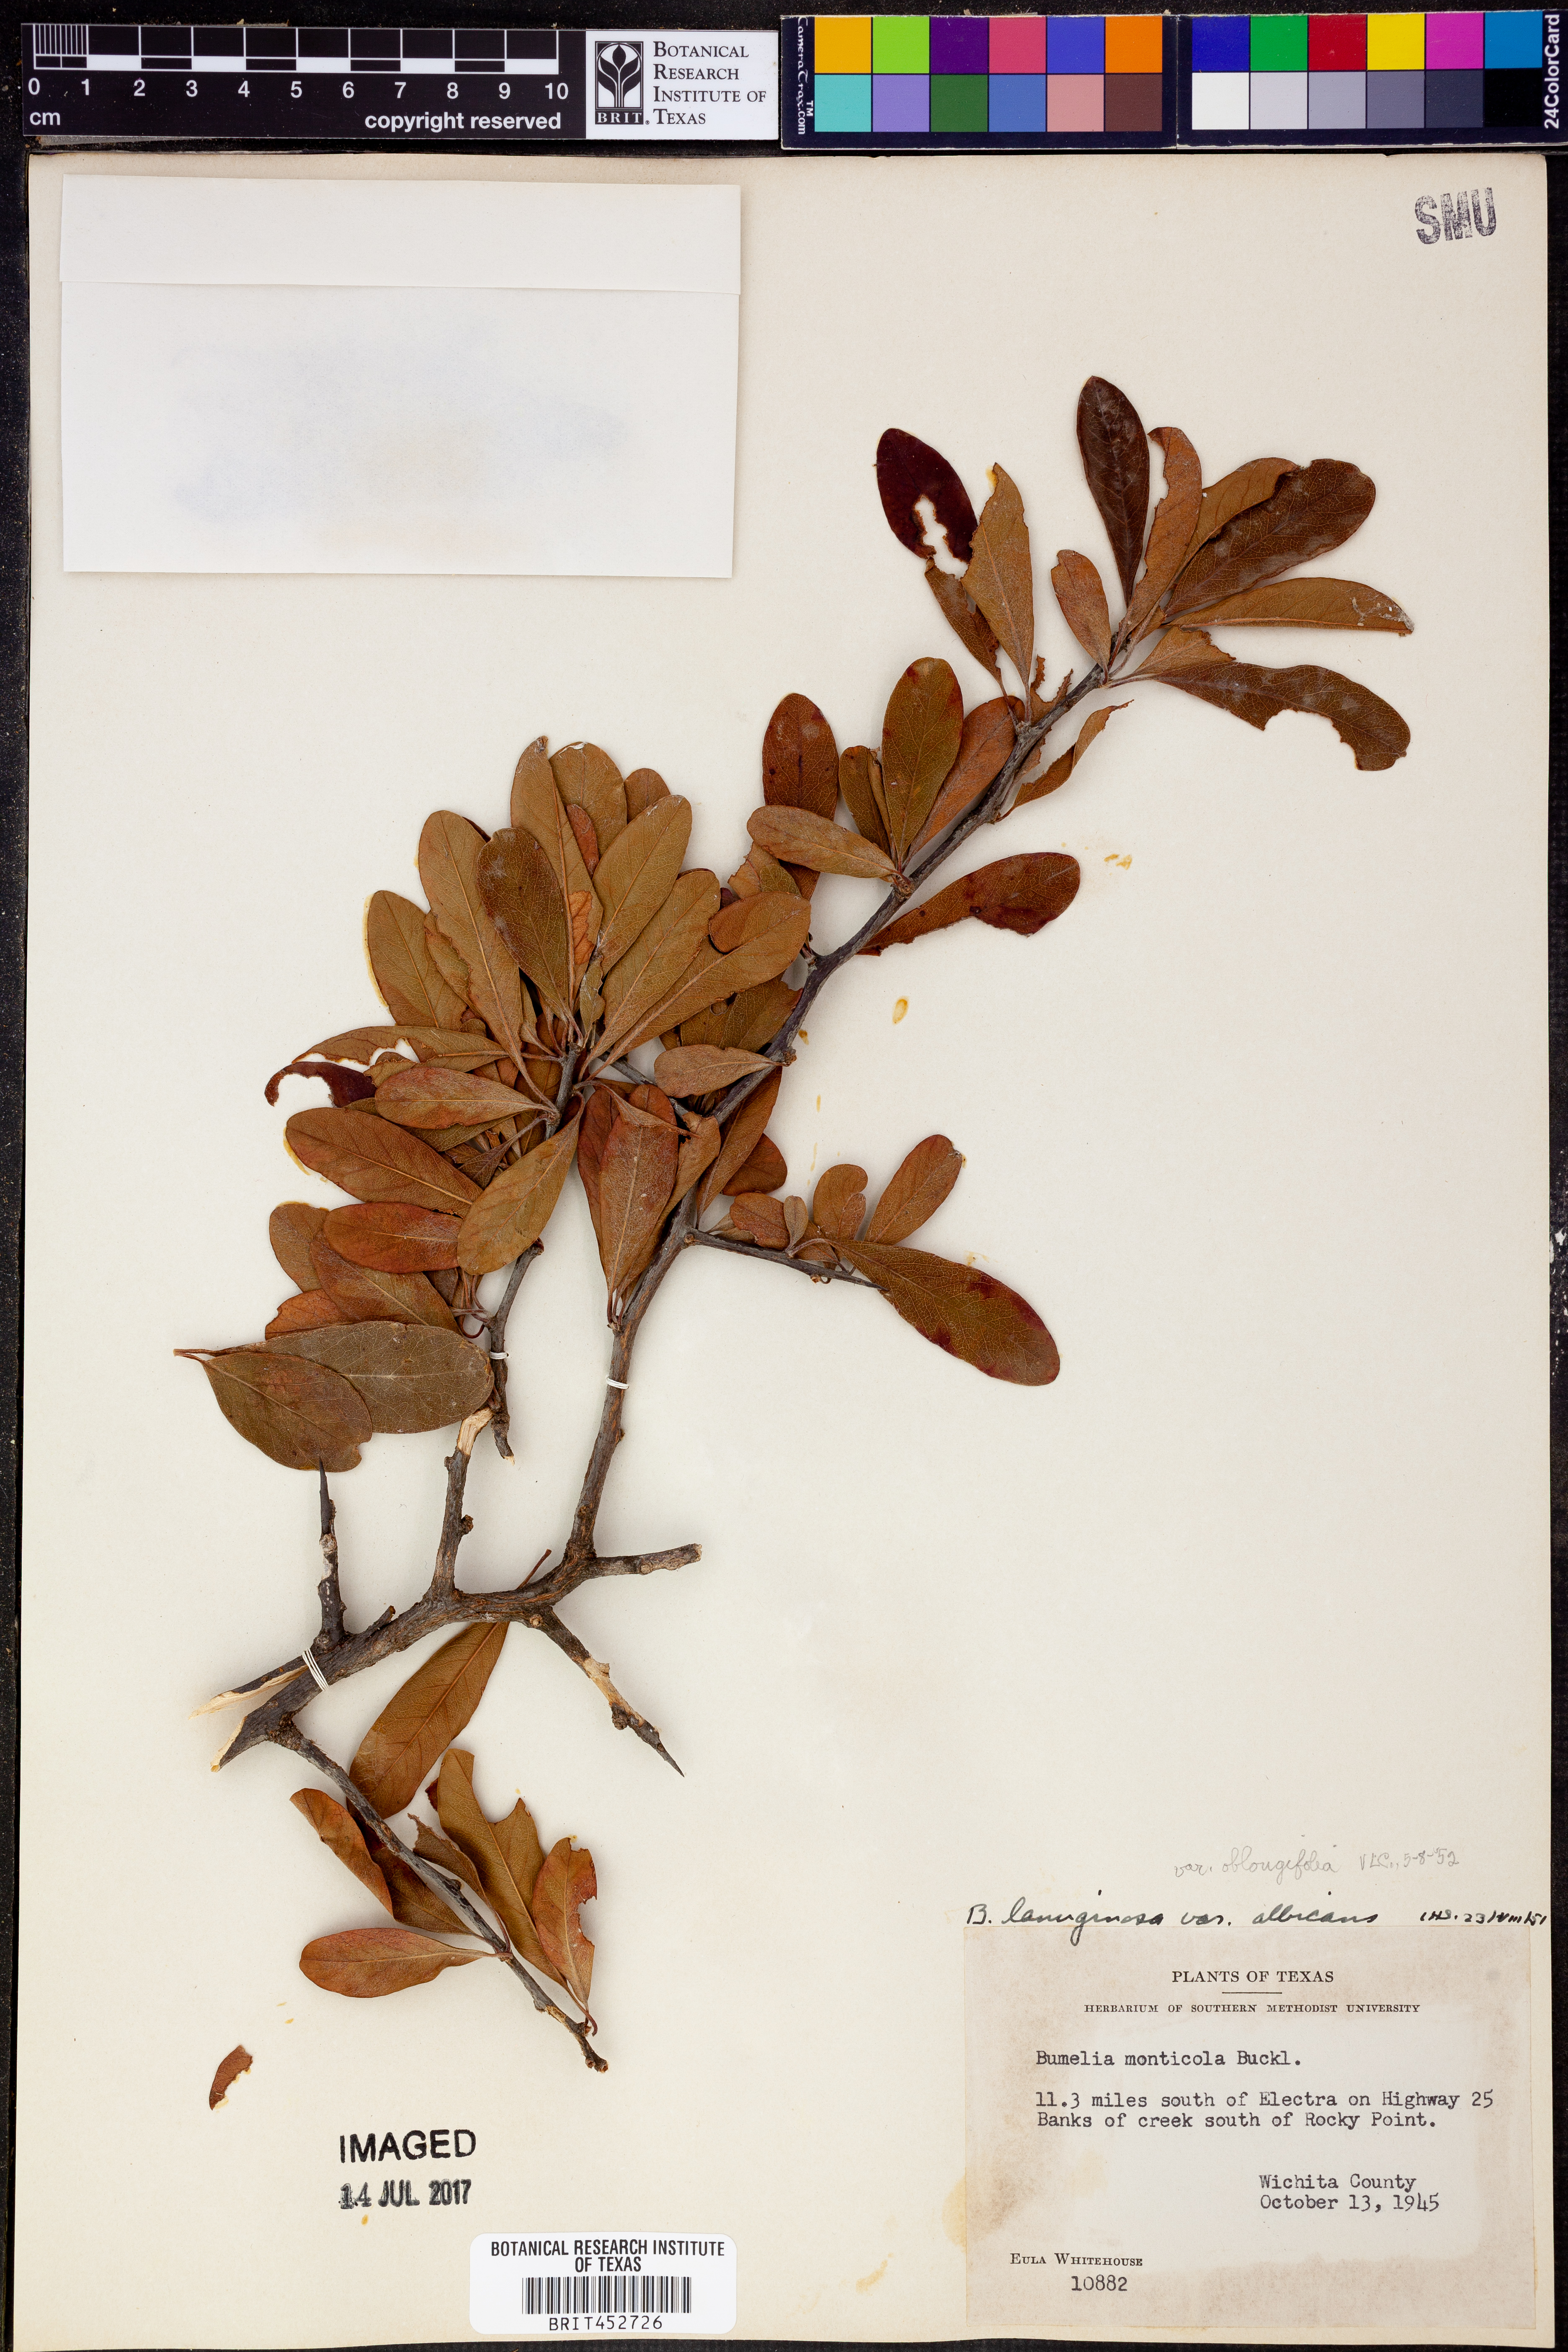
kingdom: Plantae
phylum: Tracheophyta
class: Magnoliopsida
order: Ericales
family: Sapotaceae
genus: Sideroxylon
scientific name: Sideroxylon lanuginosum
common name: Chittamwood
